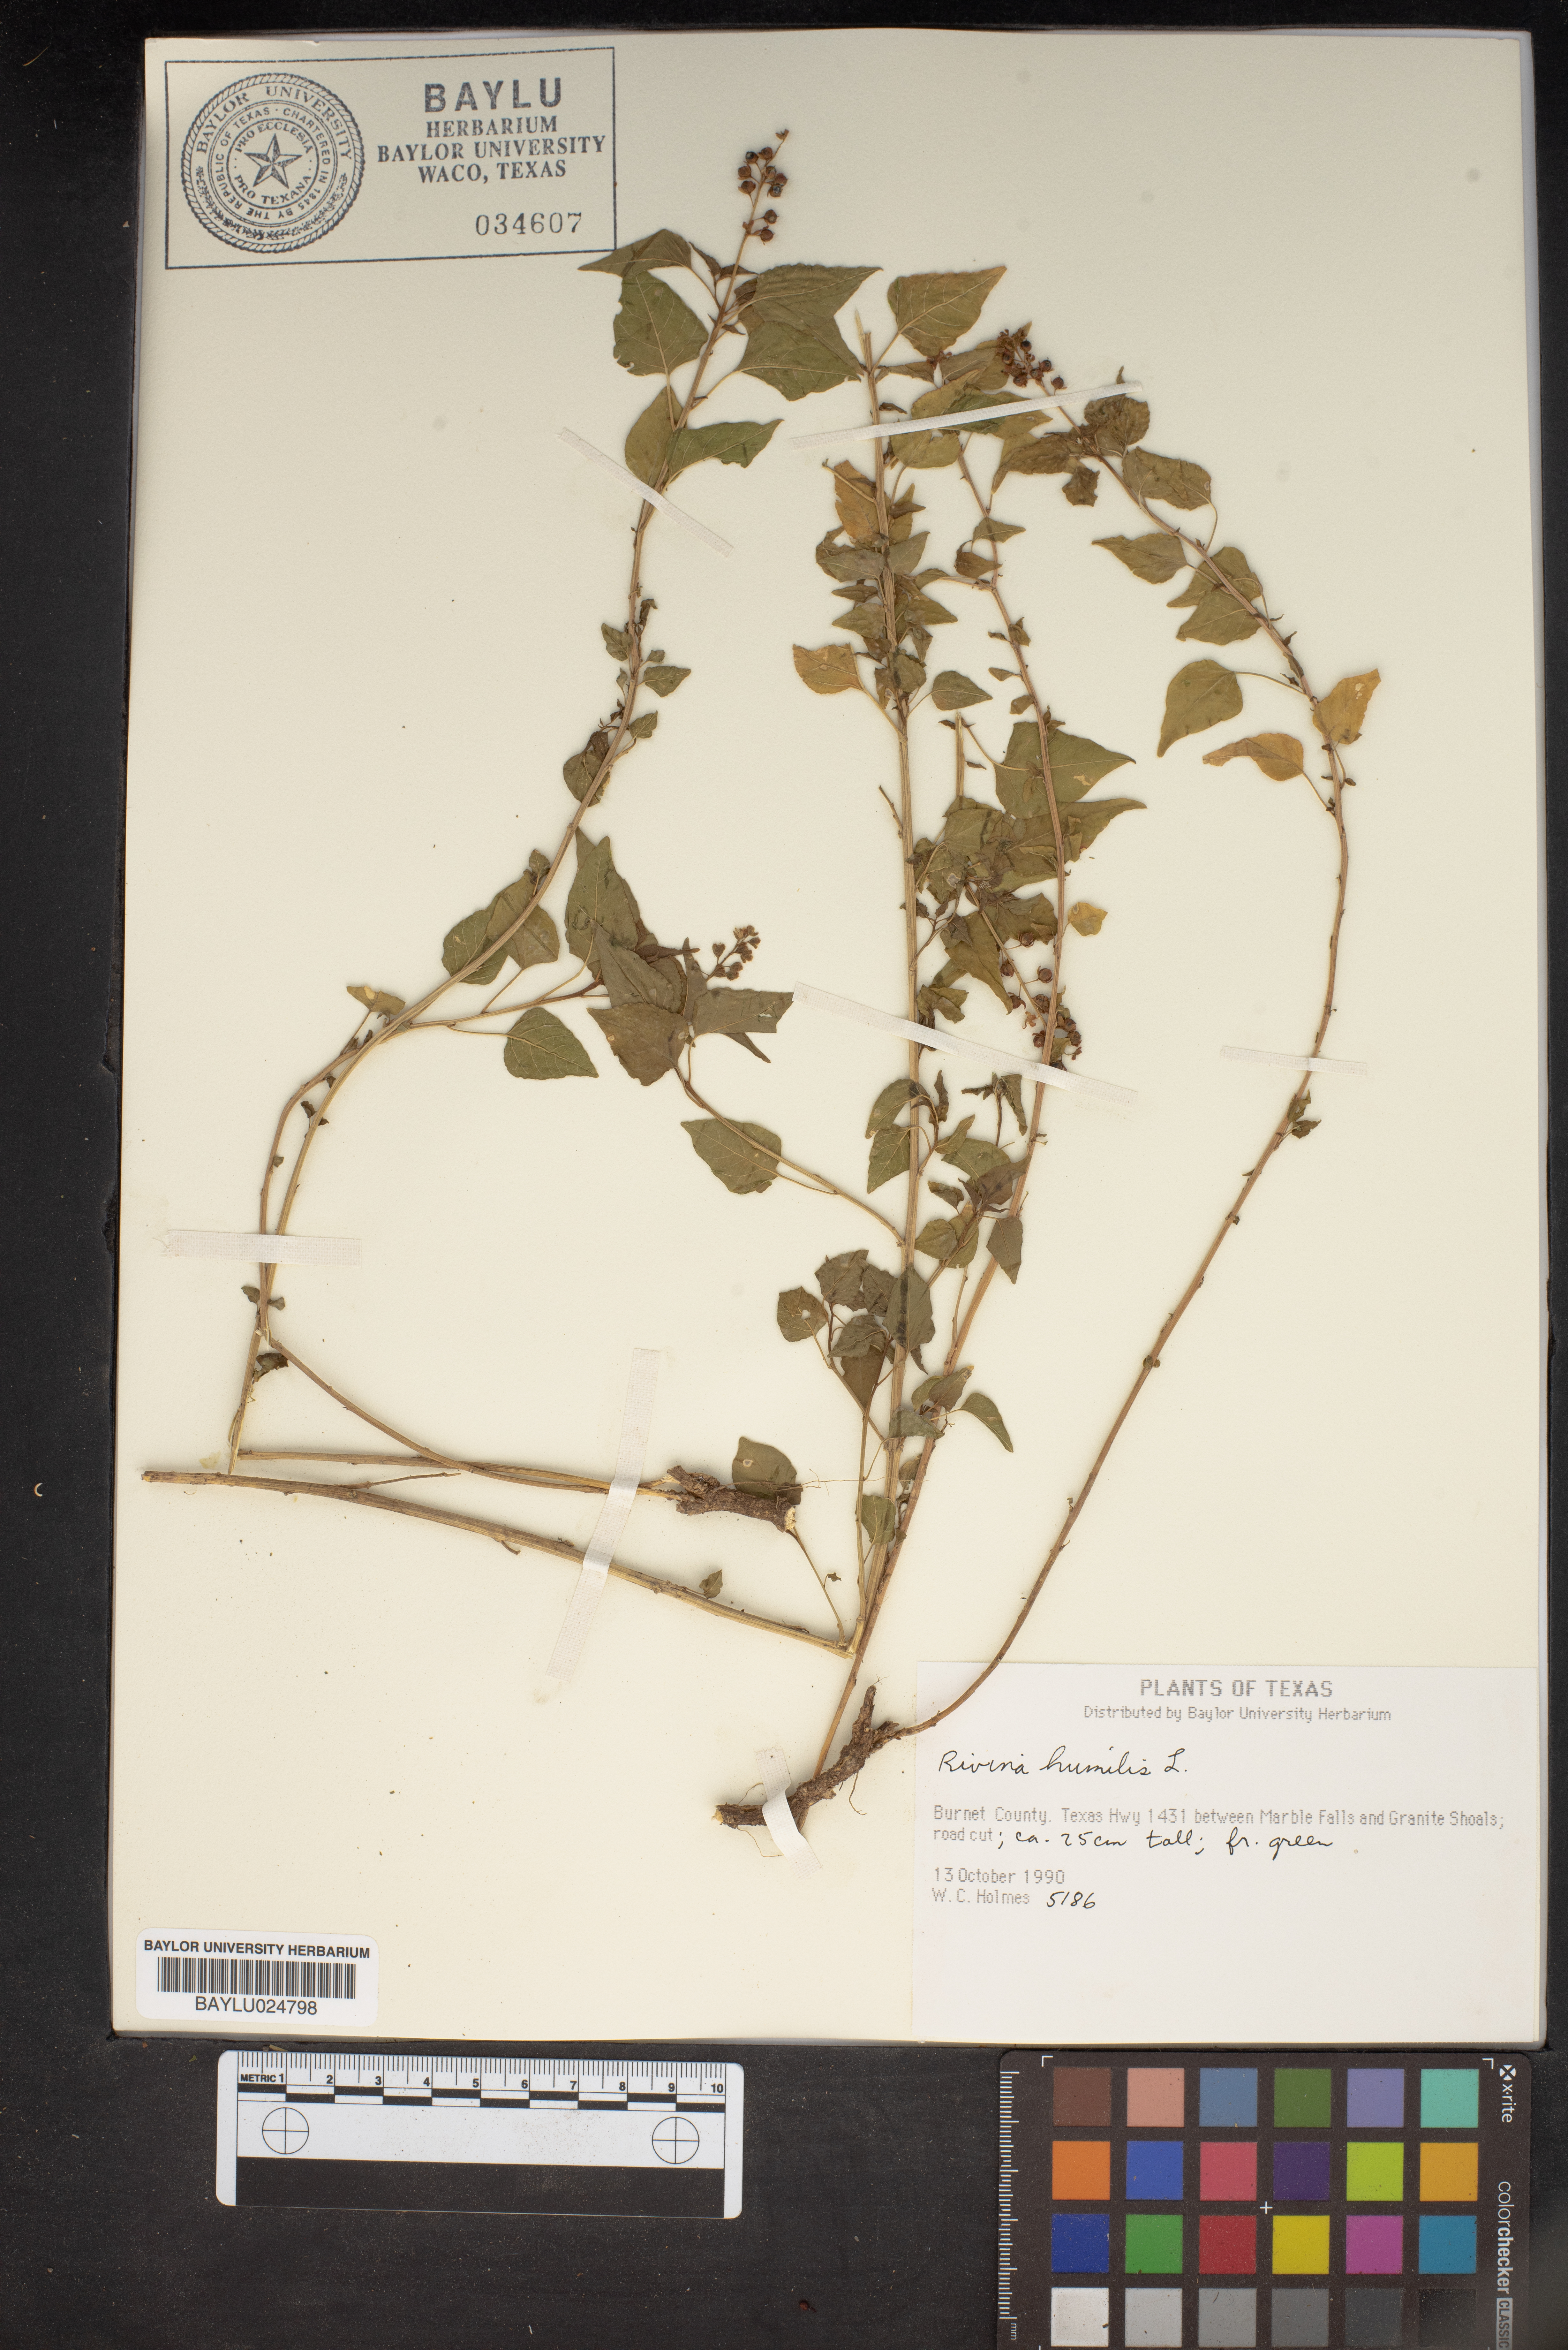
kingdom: Plantae
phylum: Tracheophyta
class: Magnoliopsida
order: Caryophyllales
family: Phytolaccaceae
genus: Rivina
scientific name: Rivina humilis
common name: Rougeplant
